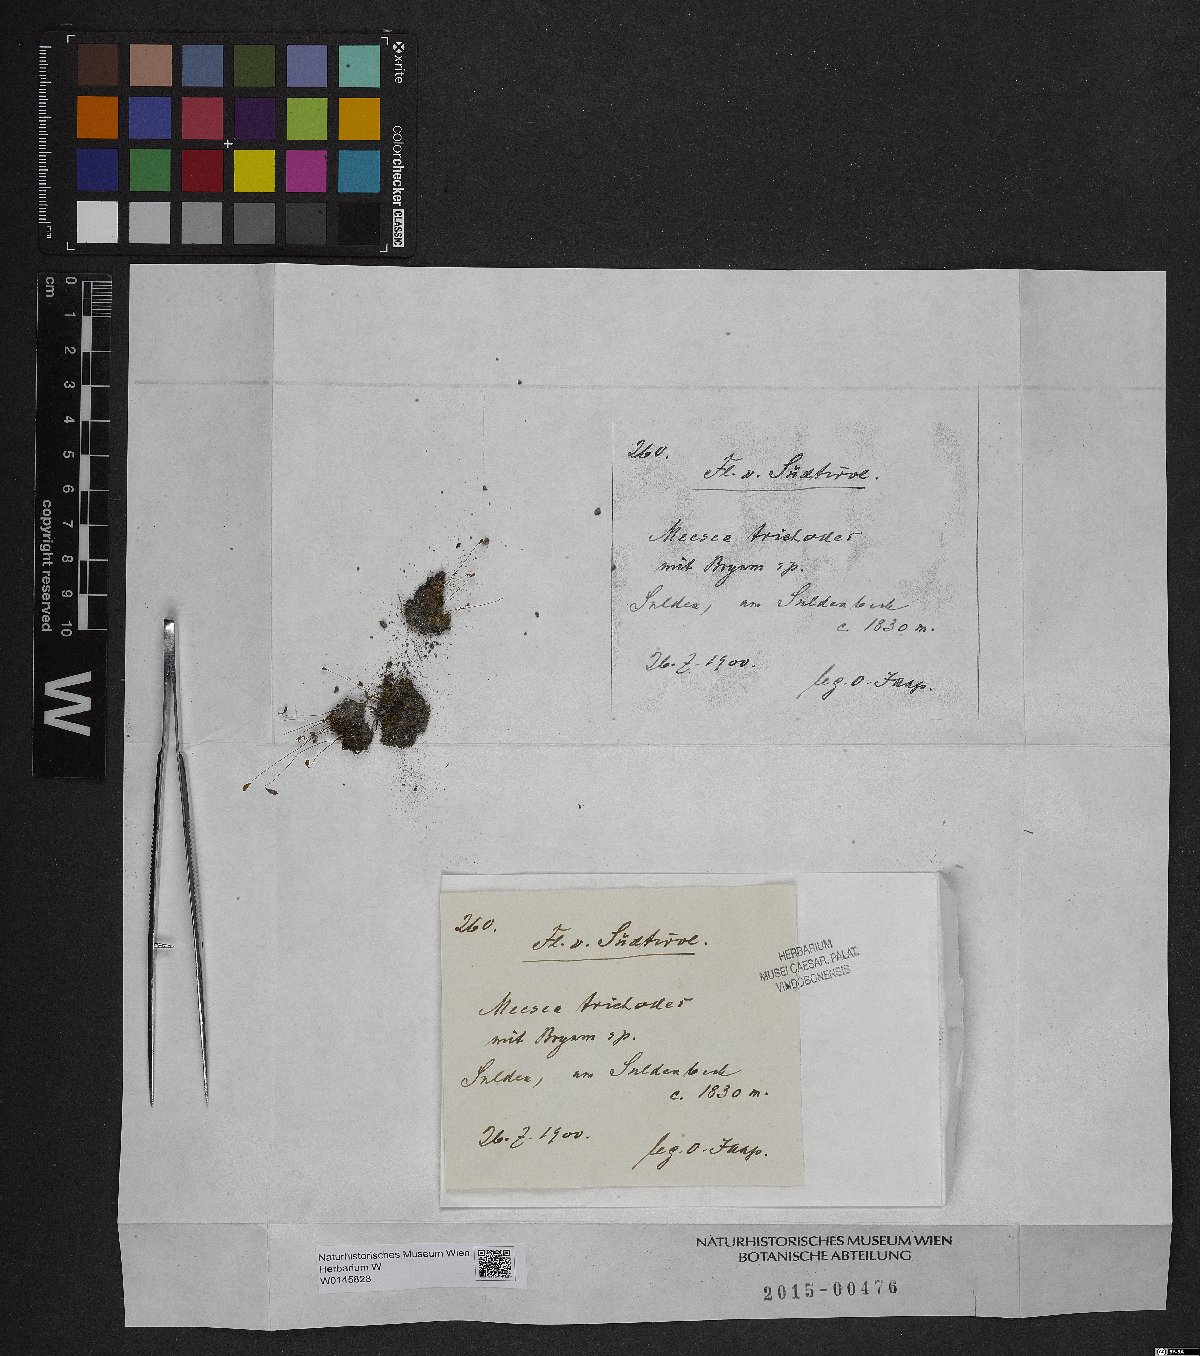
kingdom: Plantae
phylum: Bryophyta
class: Bryopsida
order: Splachnales
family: Meesiaceae
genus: Meesia
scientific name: Meesia uliginosa
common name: Capillary thread moss
